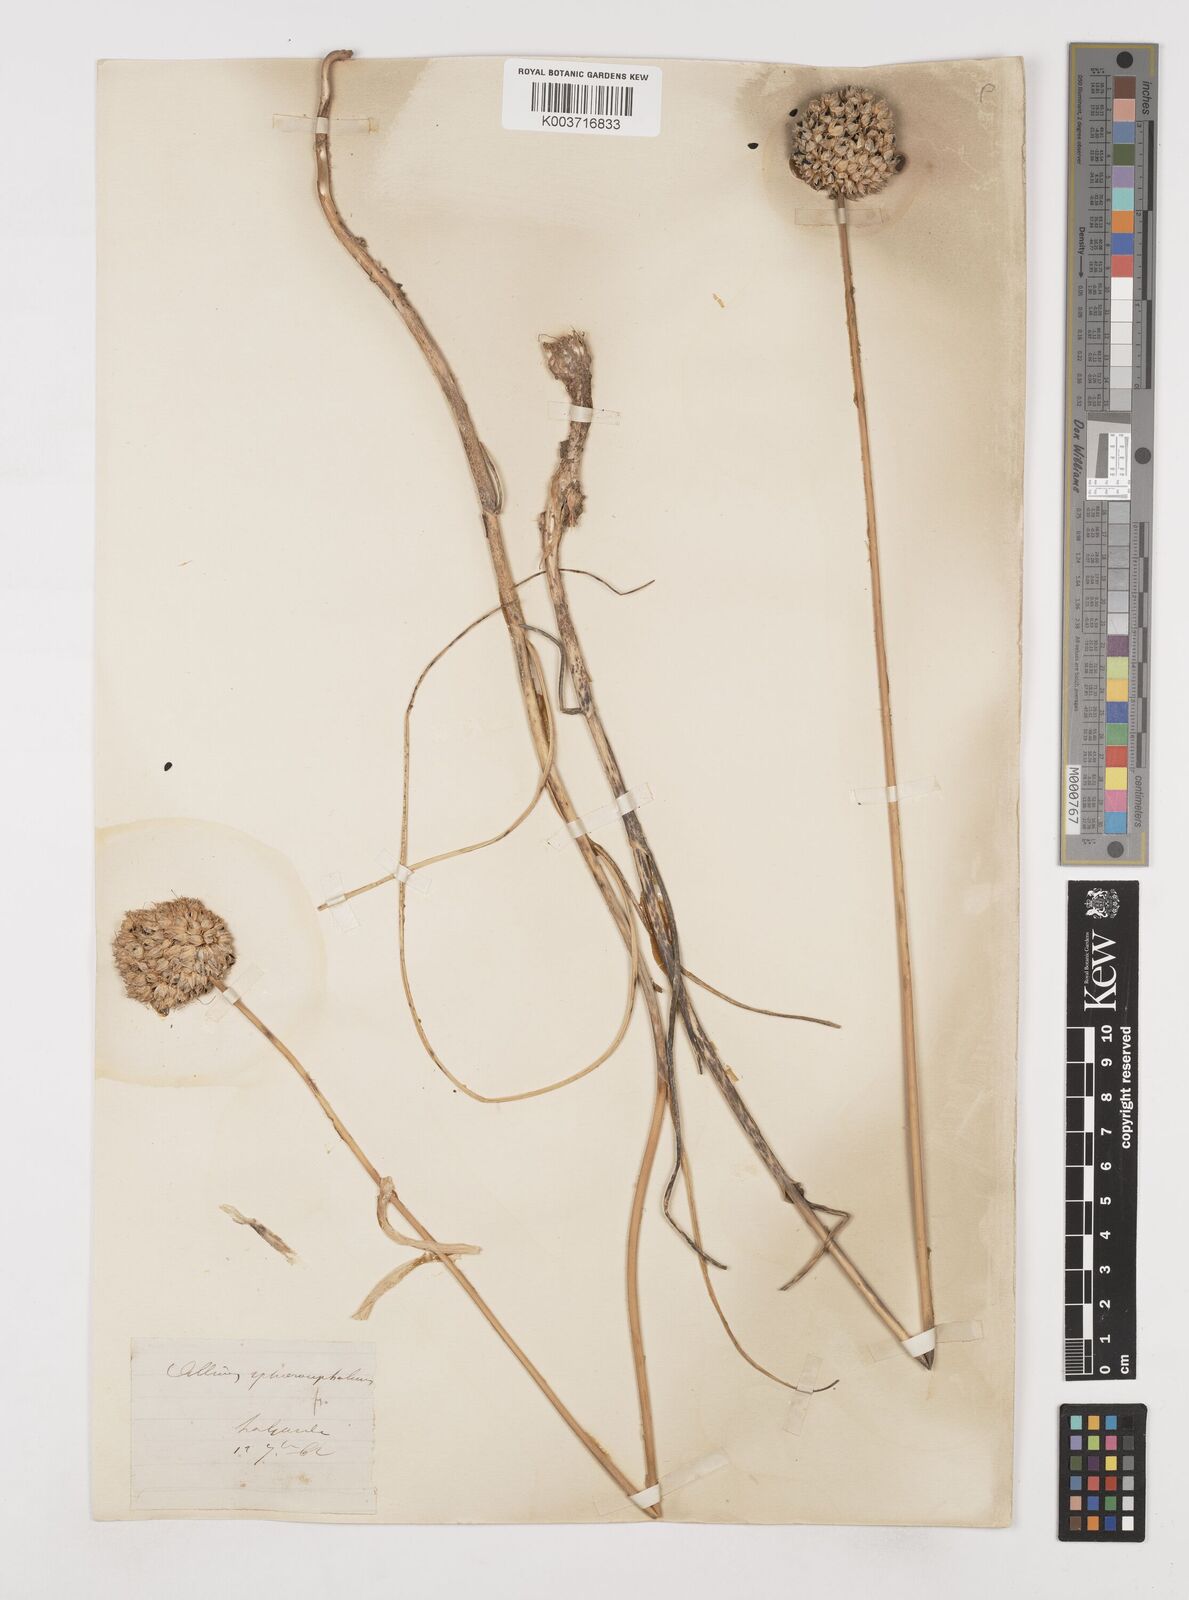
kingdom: Plantae
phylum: Tracheophyta
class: Liliopsida
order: Asparagales
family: Amaryllidaceae
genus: Allium
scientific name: Allium sphaerocephalon
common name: Round-headed leek
